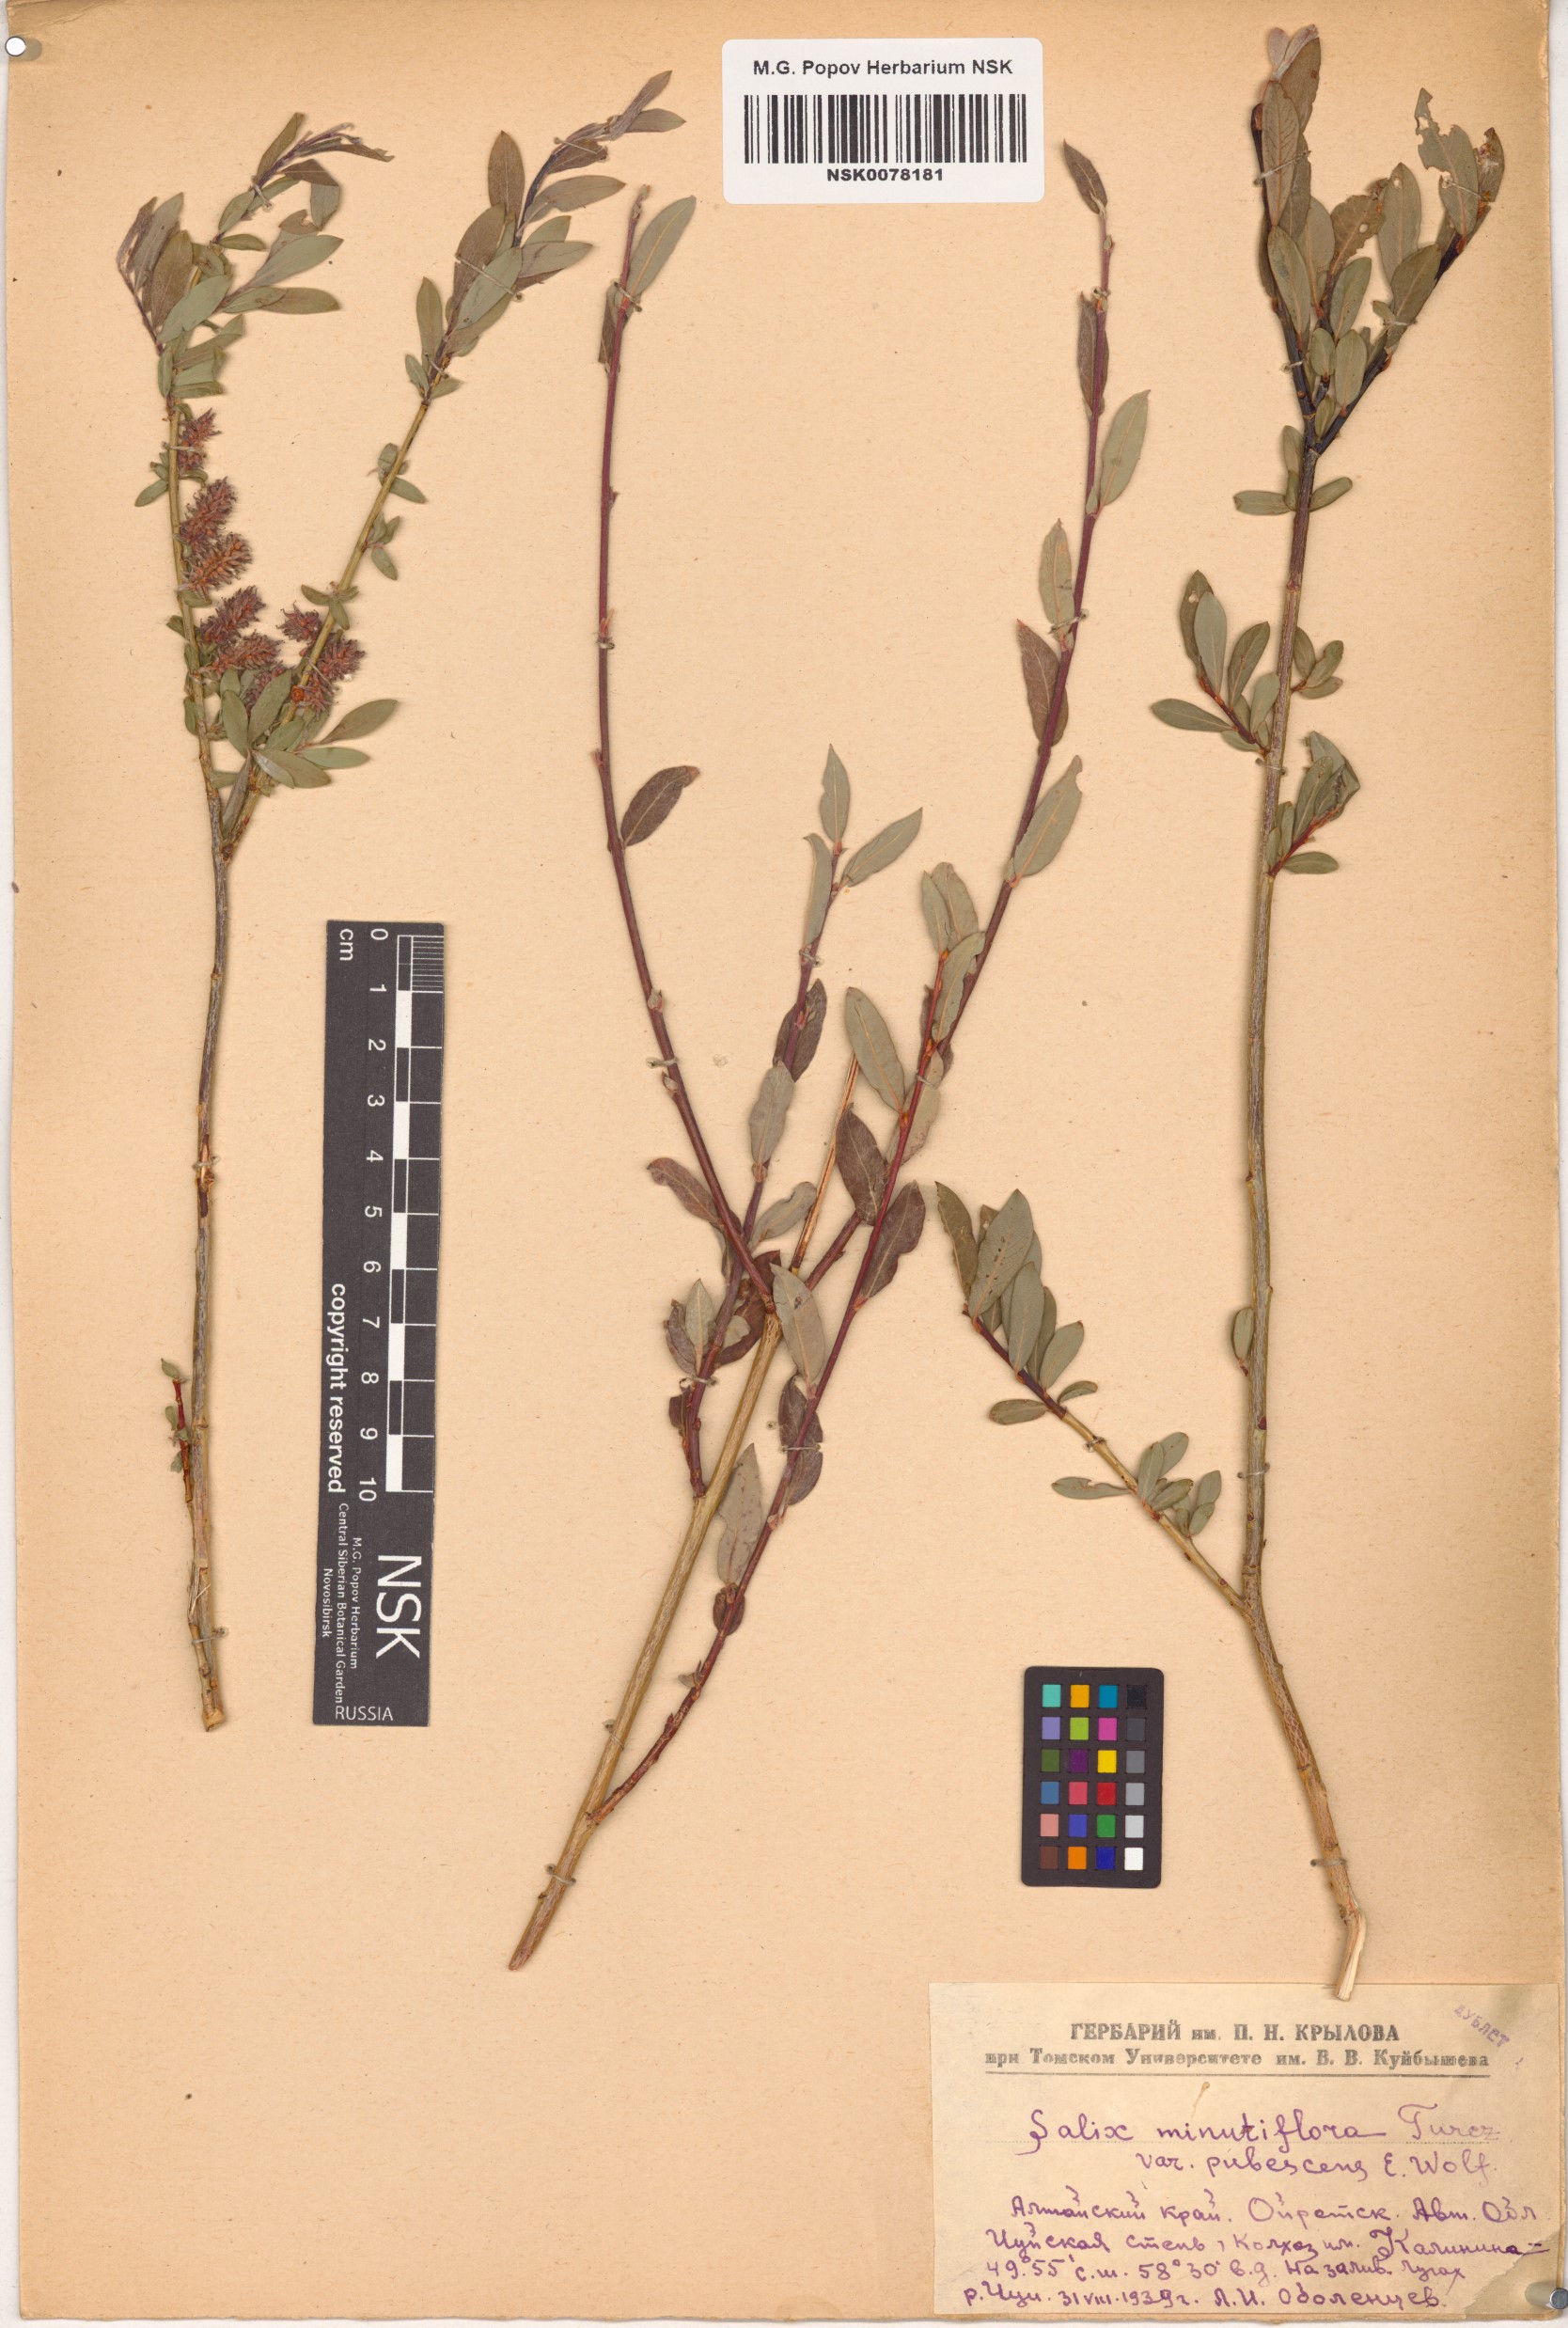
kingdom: Plantae
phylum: Tracheophyta
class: Magnoliopsida
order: Malpighiales
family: Salicaceae
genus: Salix
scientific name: Salix caesia
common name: Blue willow
